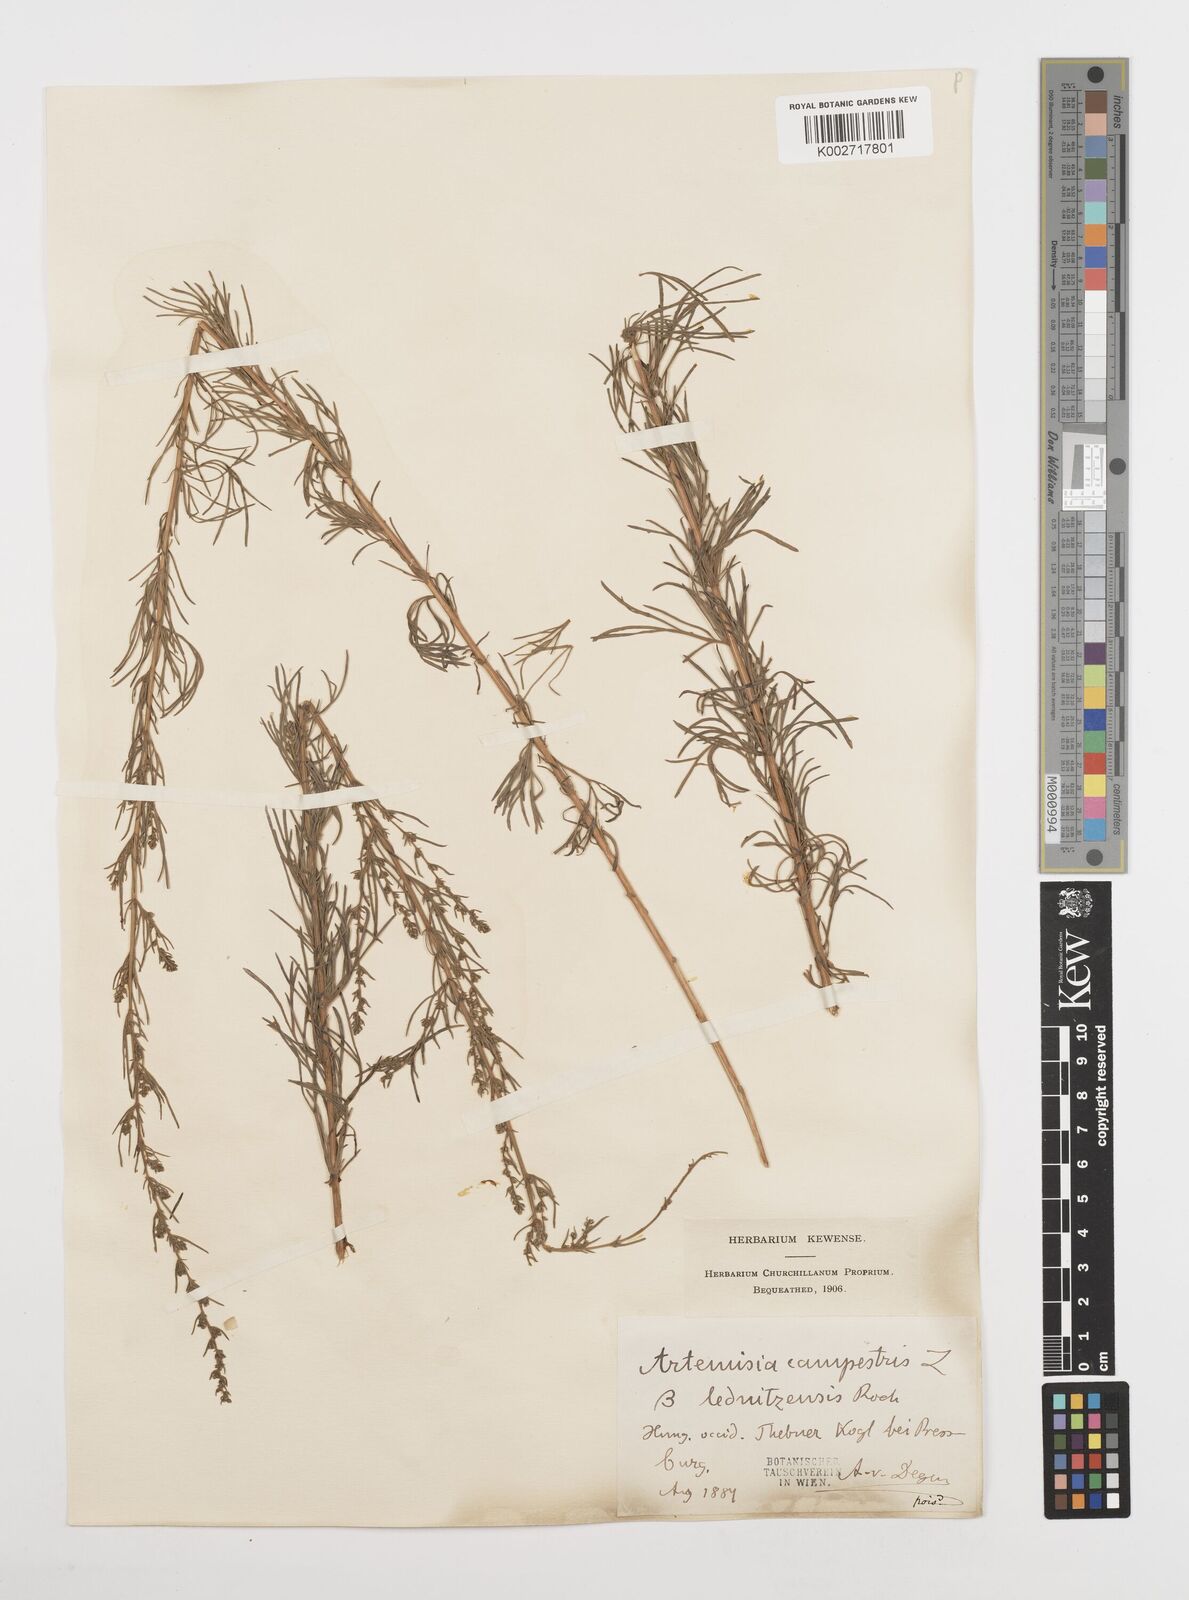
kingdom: Plantae
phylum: Tracheophyta
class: Magnoliopsida
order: Asterales
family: Asteraceae
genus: Artemisia
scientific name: Artemisia campestris
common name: Field wormwood
